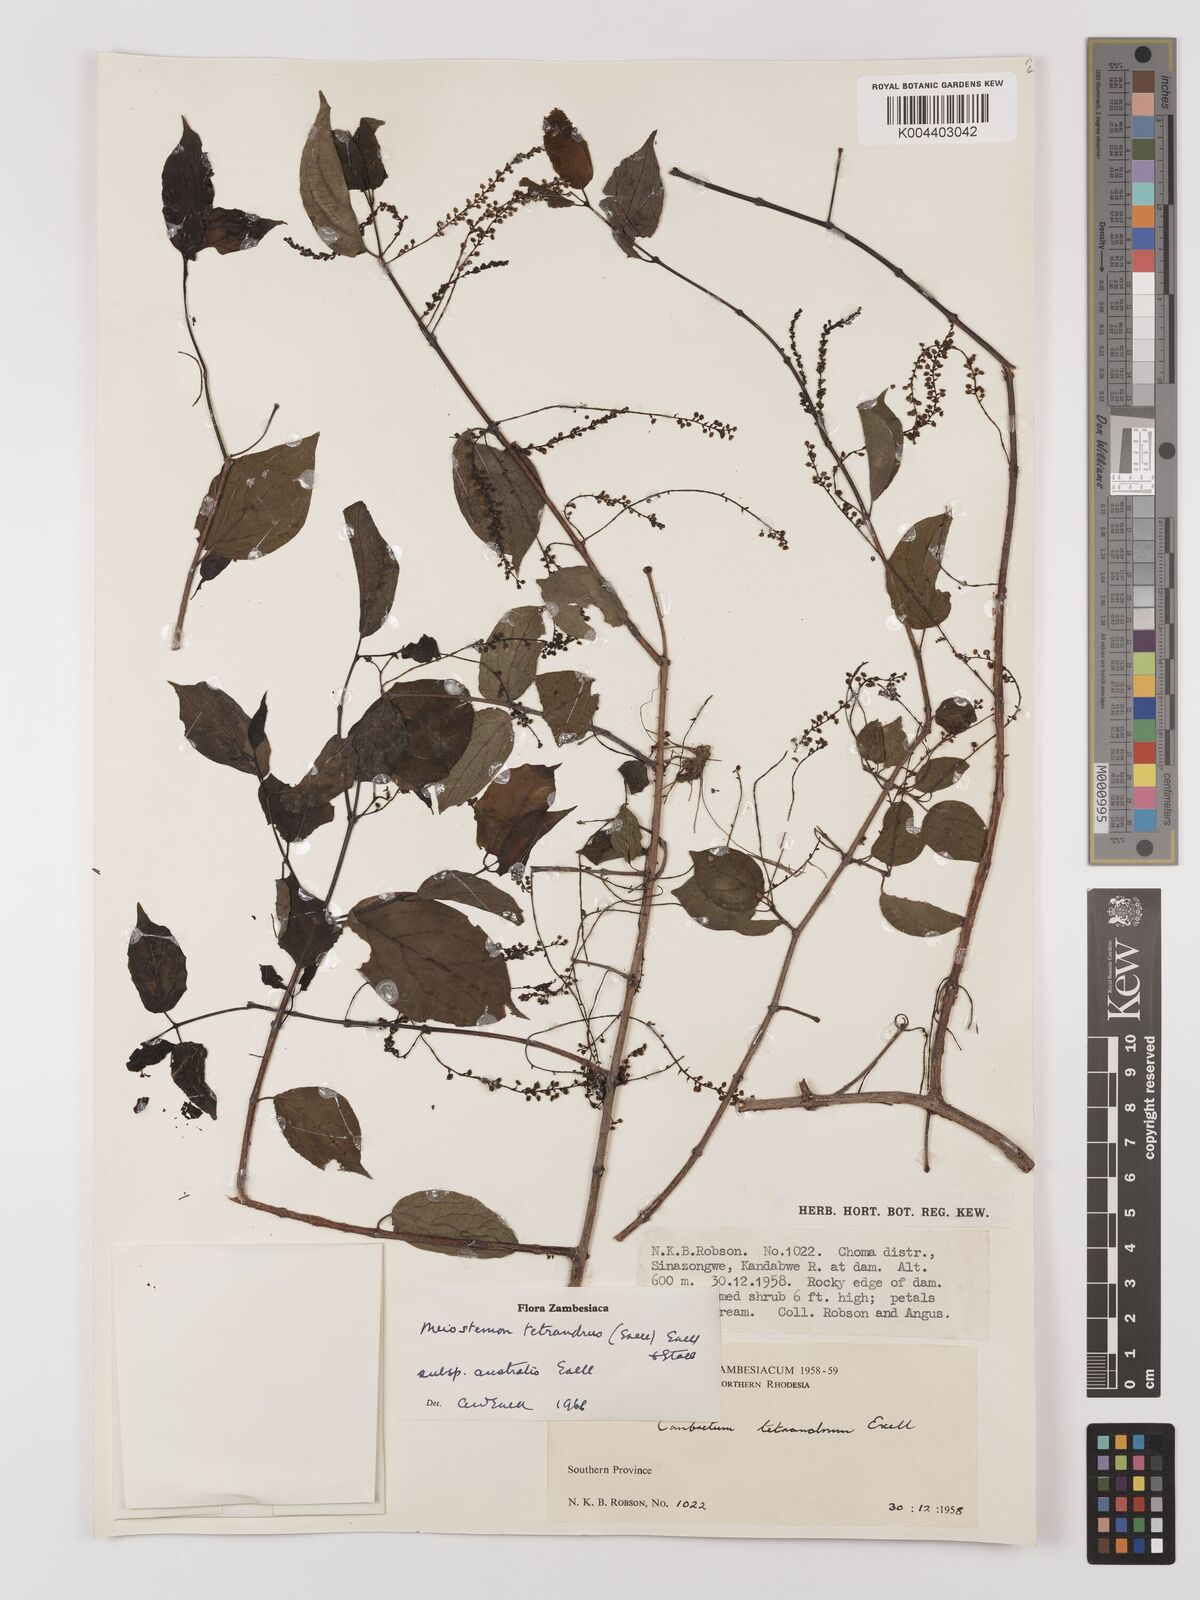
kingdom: Plantae
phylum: Tracheophyta
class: Magnoliopsida
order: Myrtales
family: Combretaceae
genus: Combretum
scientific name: Combretum tetrandrum
